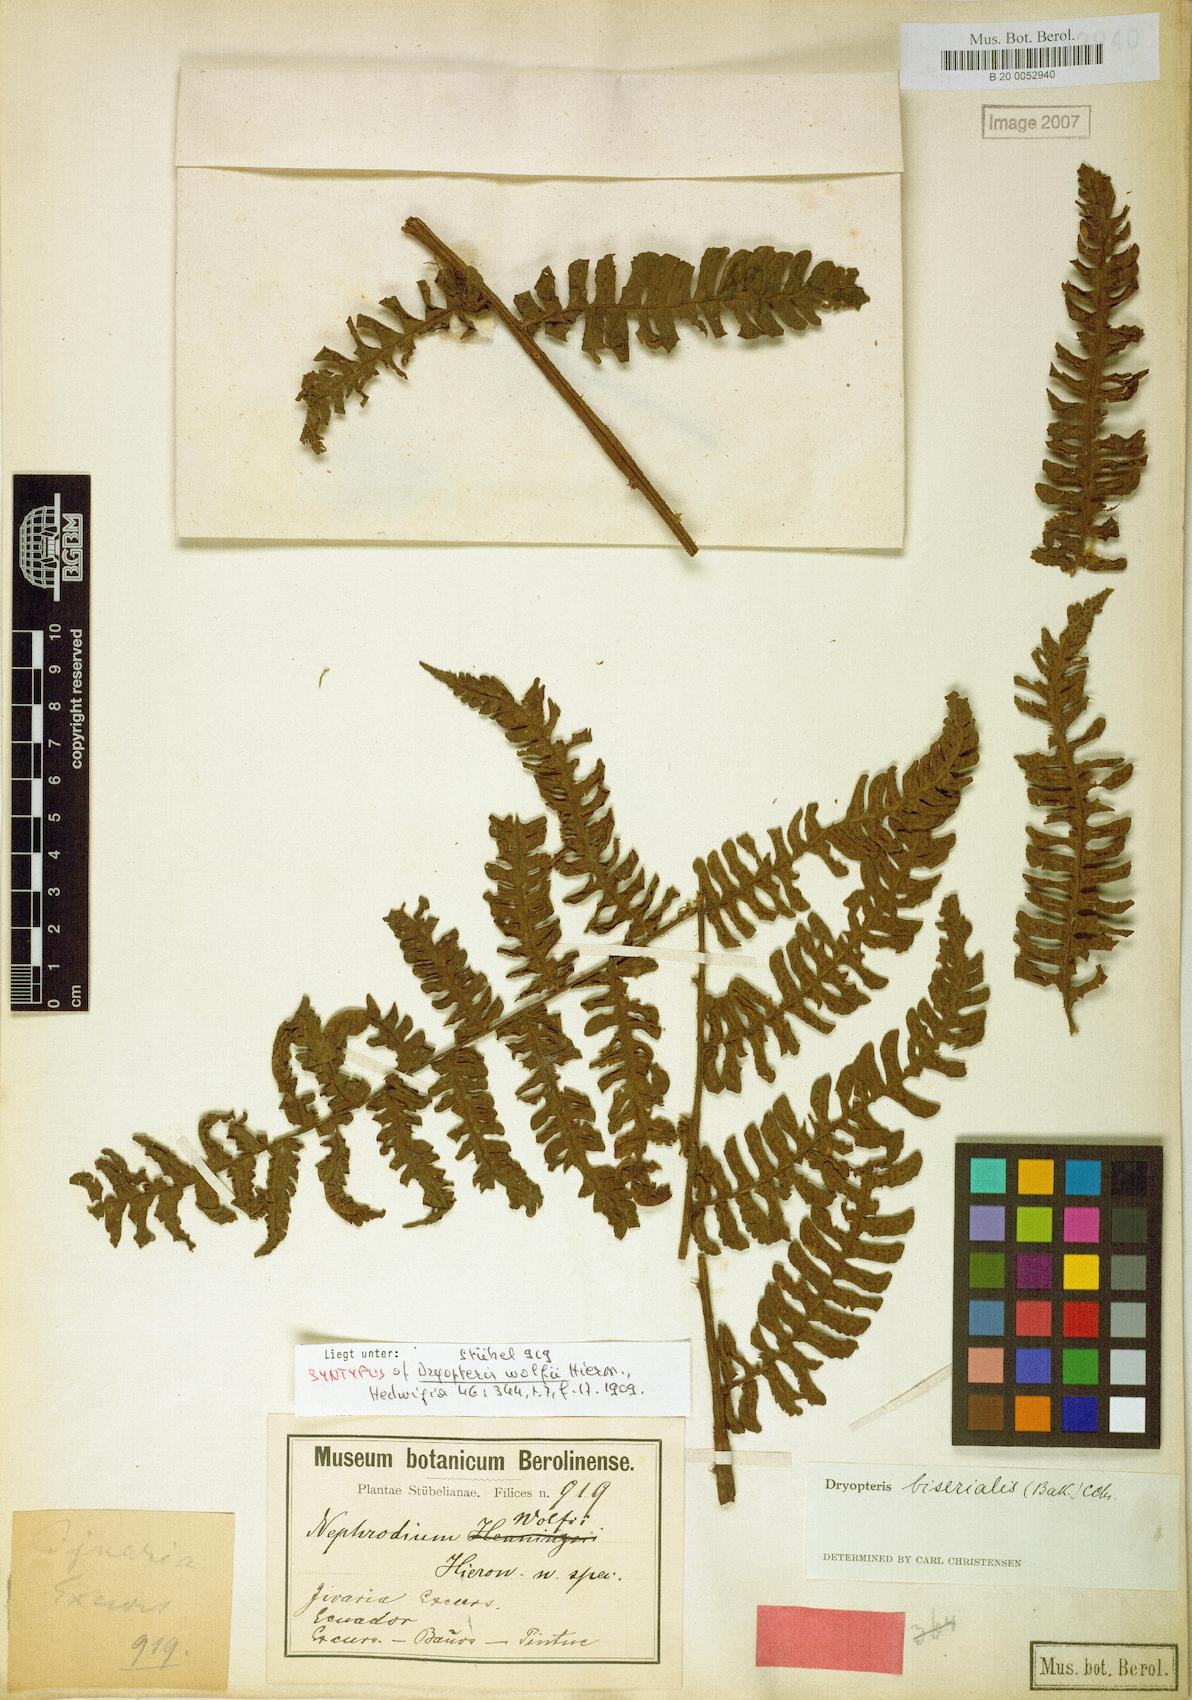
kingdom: Plantae
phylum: Tracheophyta
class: Polypodiopsida
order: Polypodiales
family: Dryopteridaceae
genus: Megalastrum
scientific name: Megalastrum biseriale
